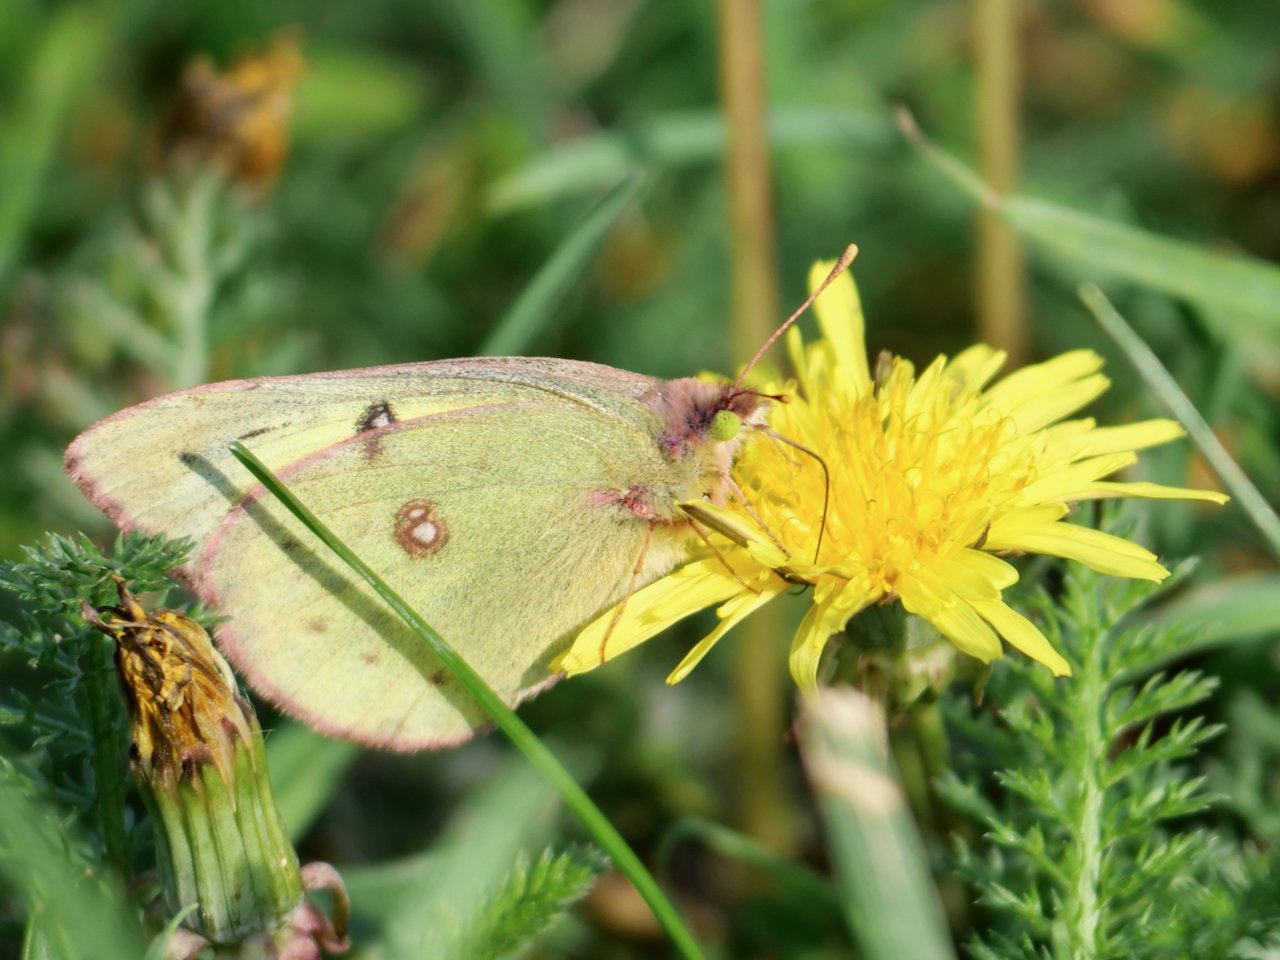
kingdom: Animalia
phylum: Arthropoda
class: Insecta
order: Lepidoptera
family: Pieridae
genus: Colias
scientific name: Colias philodice
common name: Clouded Sulphur
